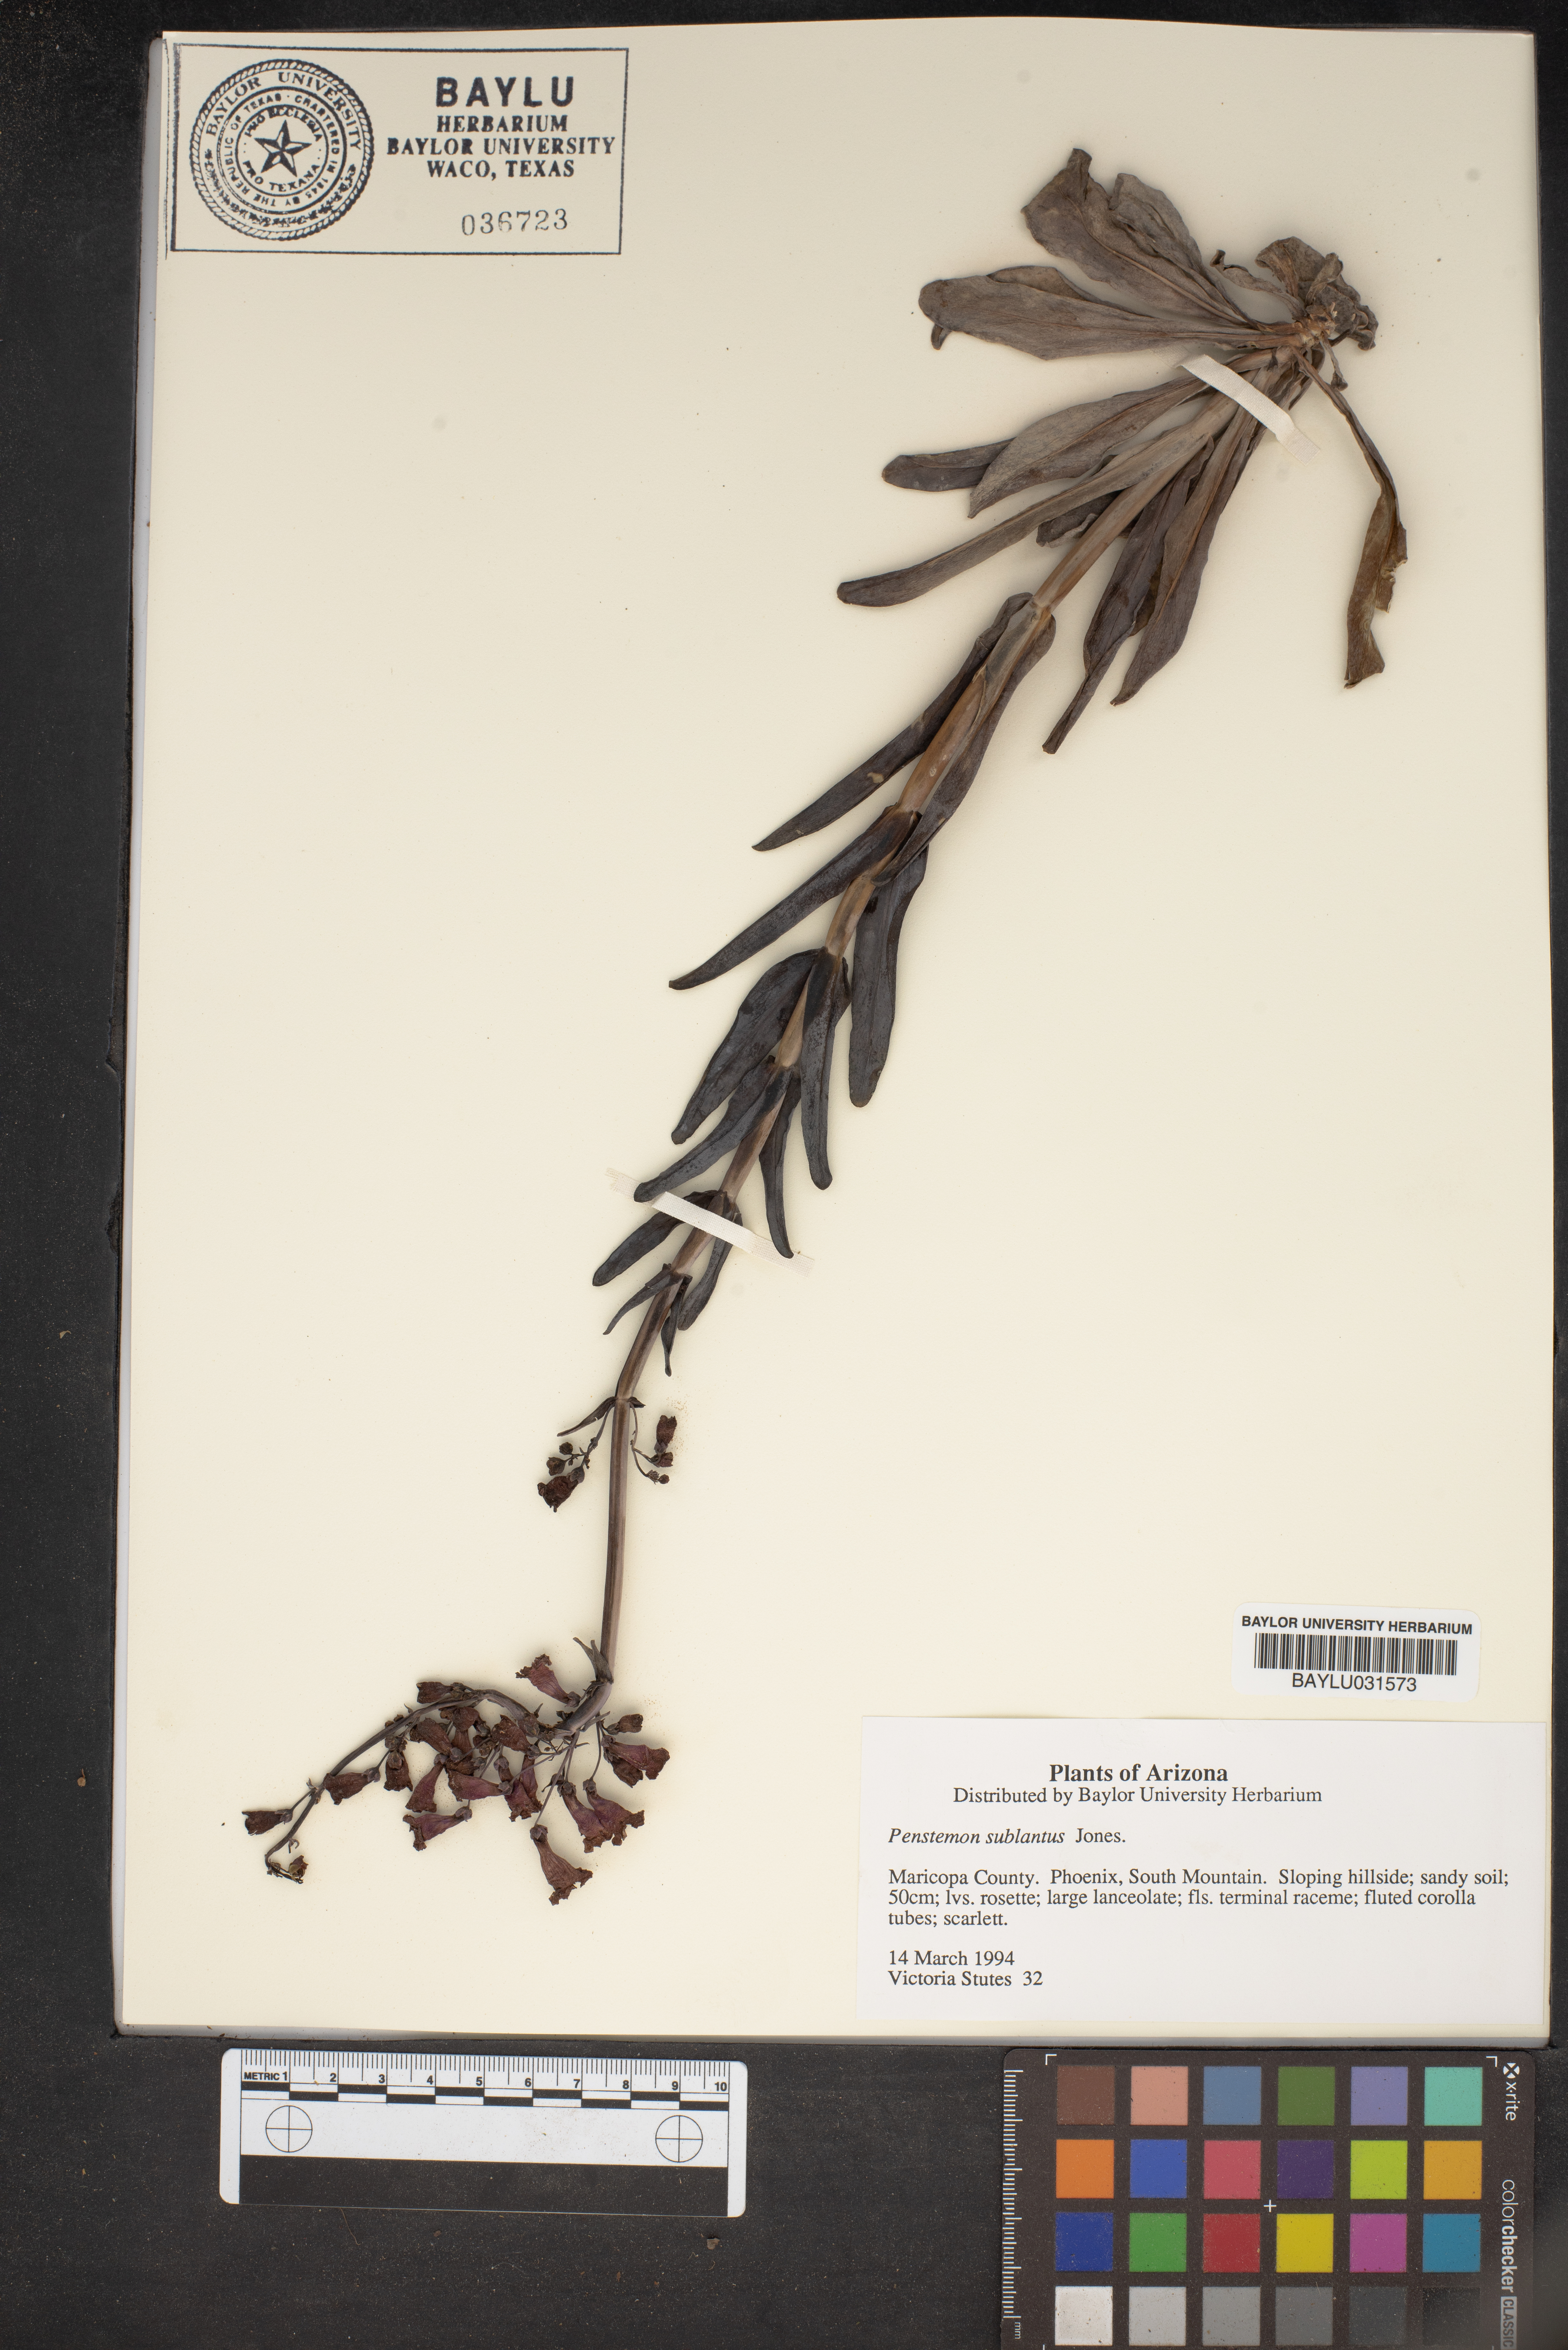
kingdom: Plantae
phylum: Tracheophyta
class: Magnoliopsida
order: Lamiales
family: Plantaginaceae
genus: Penstemon
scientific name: Penstemon subulatus
